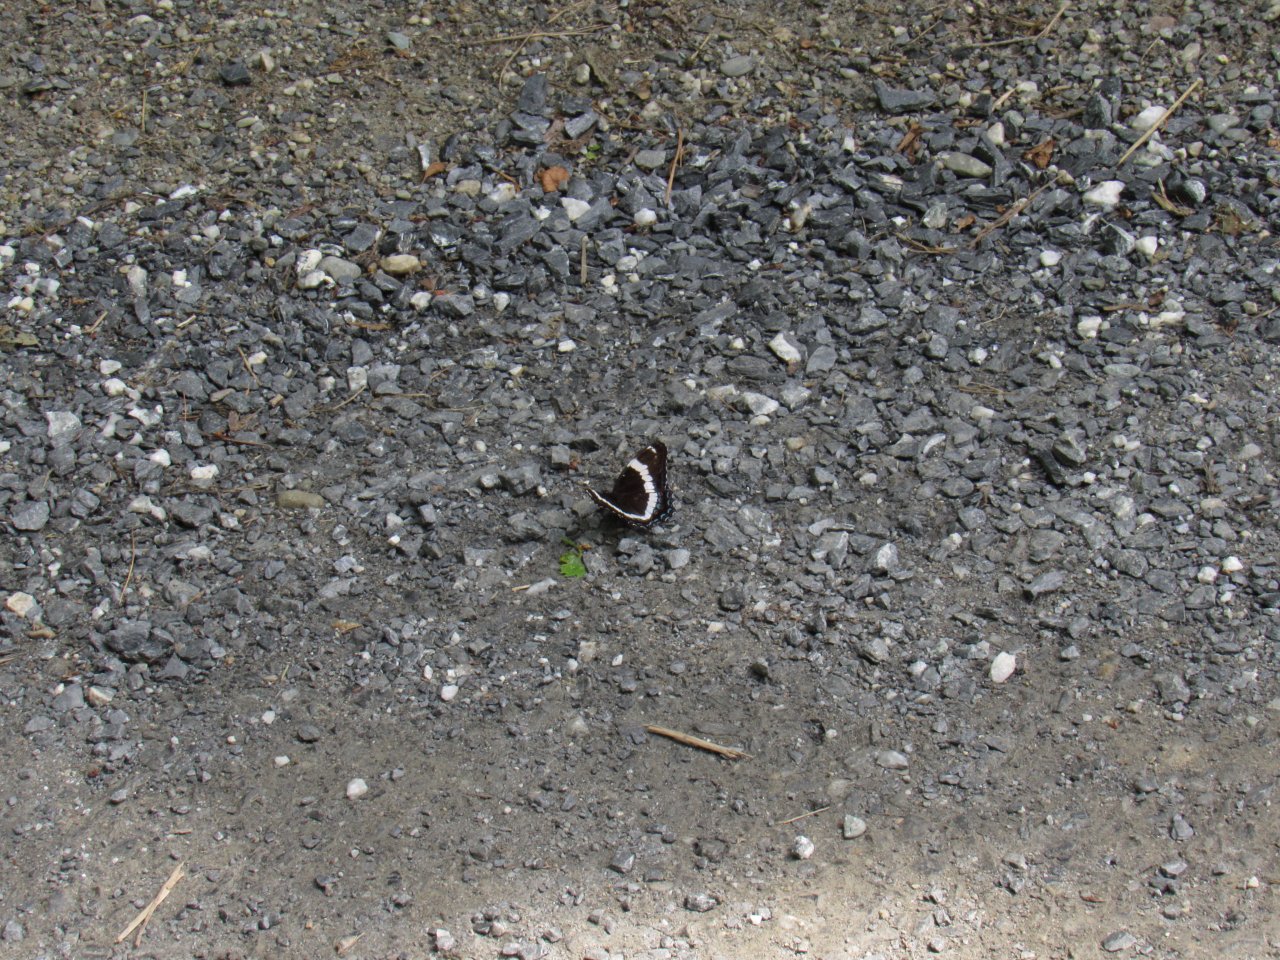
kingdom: Animalia
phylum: Arthropoda
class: Insecta
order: Lepidoptera
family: Nymphalidae
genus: Limenitis
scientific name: Limenitis arthemis
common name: Red-spotted Admiral
